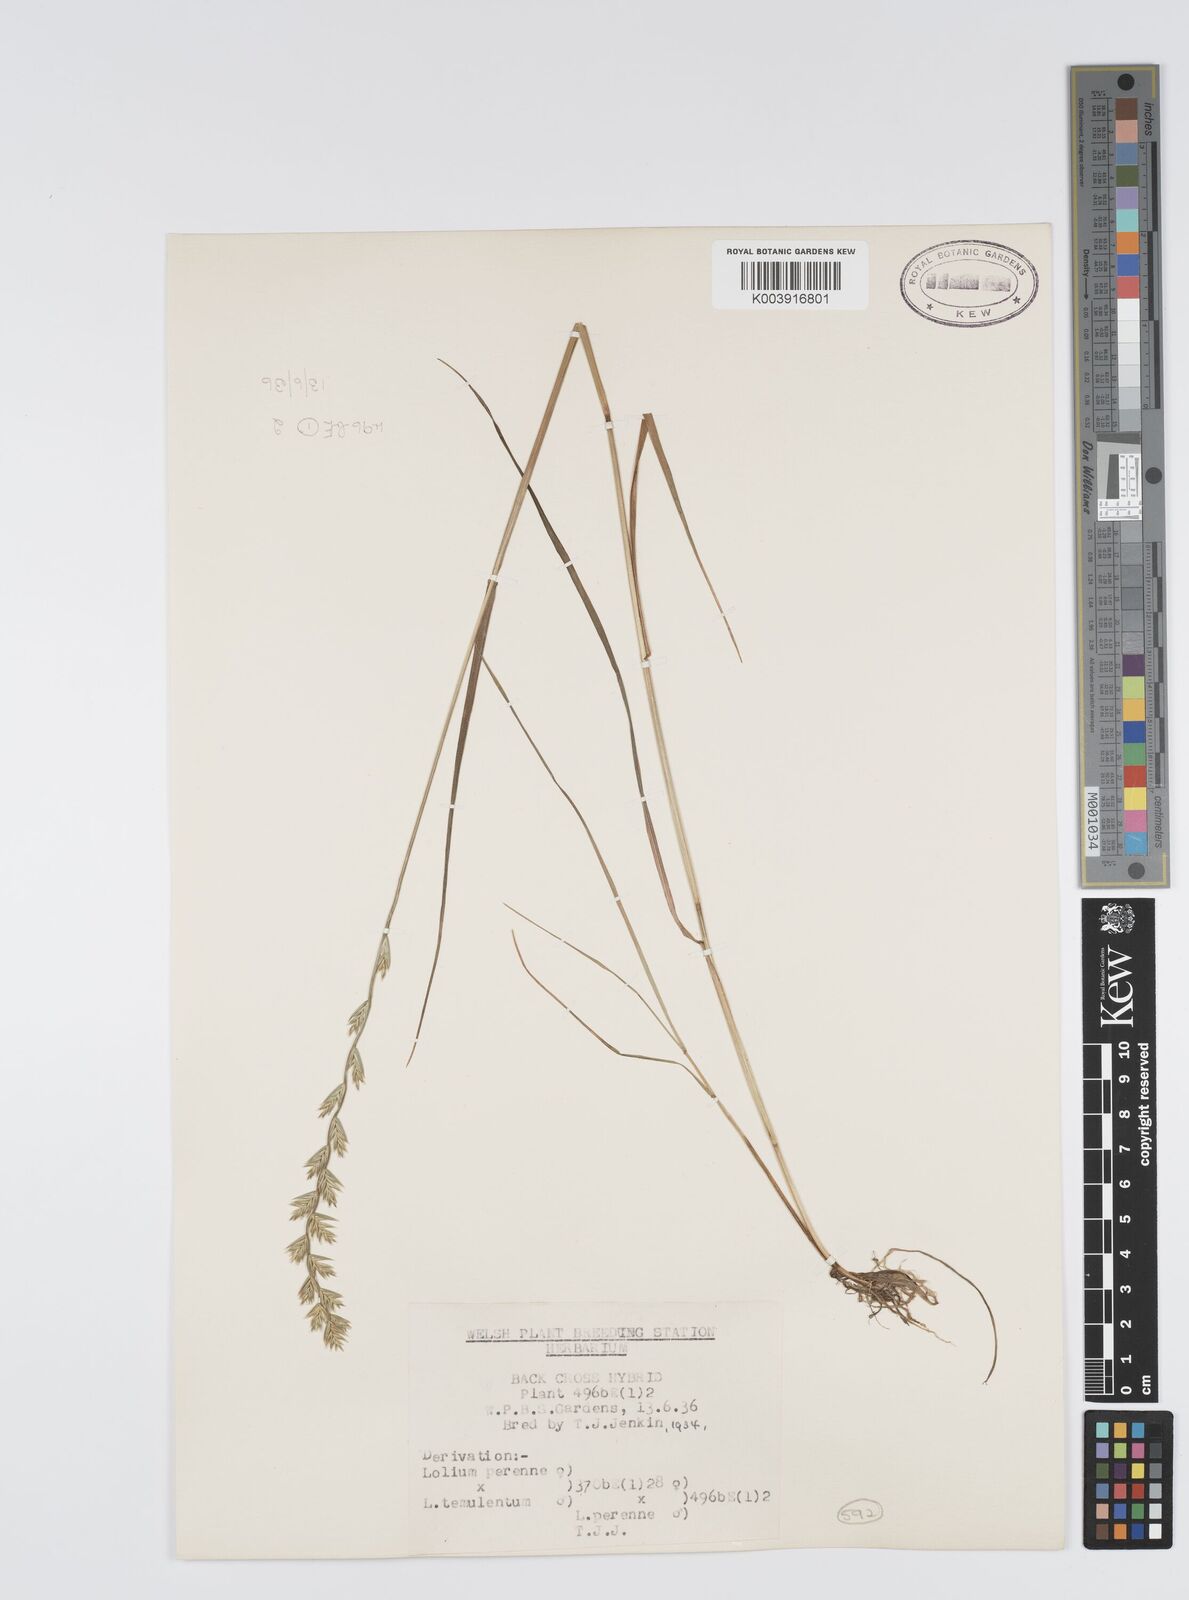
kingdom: Plantae
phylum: Tracheophyta
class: Liliopsida
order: Poales
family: Poaceae
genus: Lolium
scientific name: Lolium perenne
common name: Perennial ryegrass
